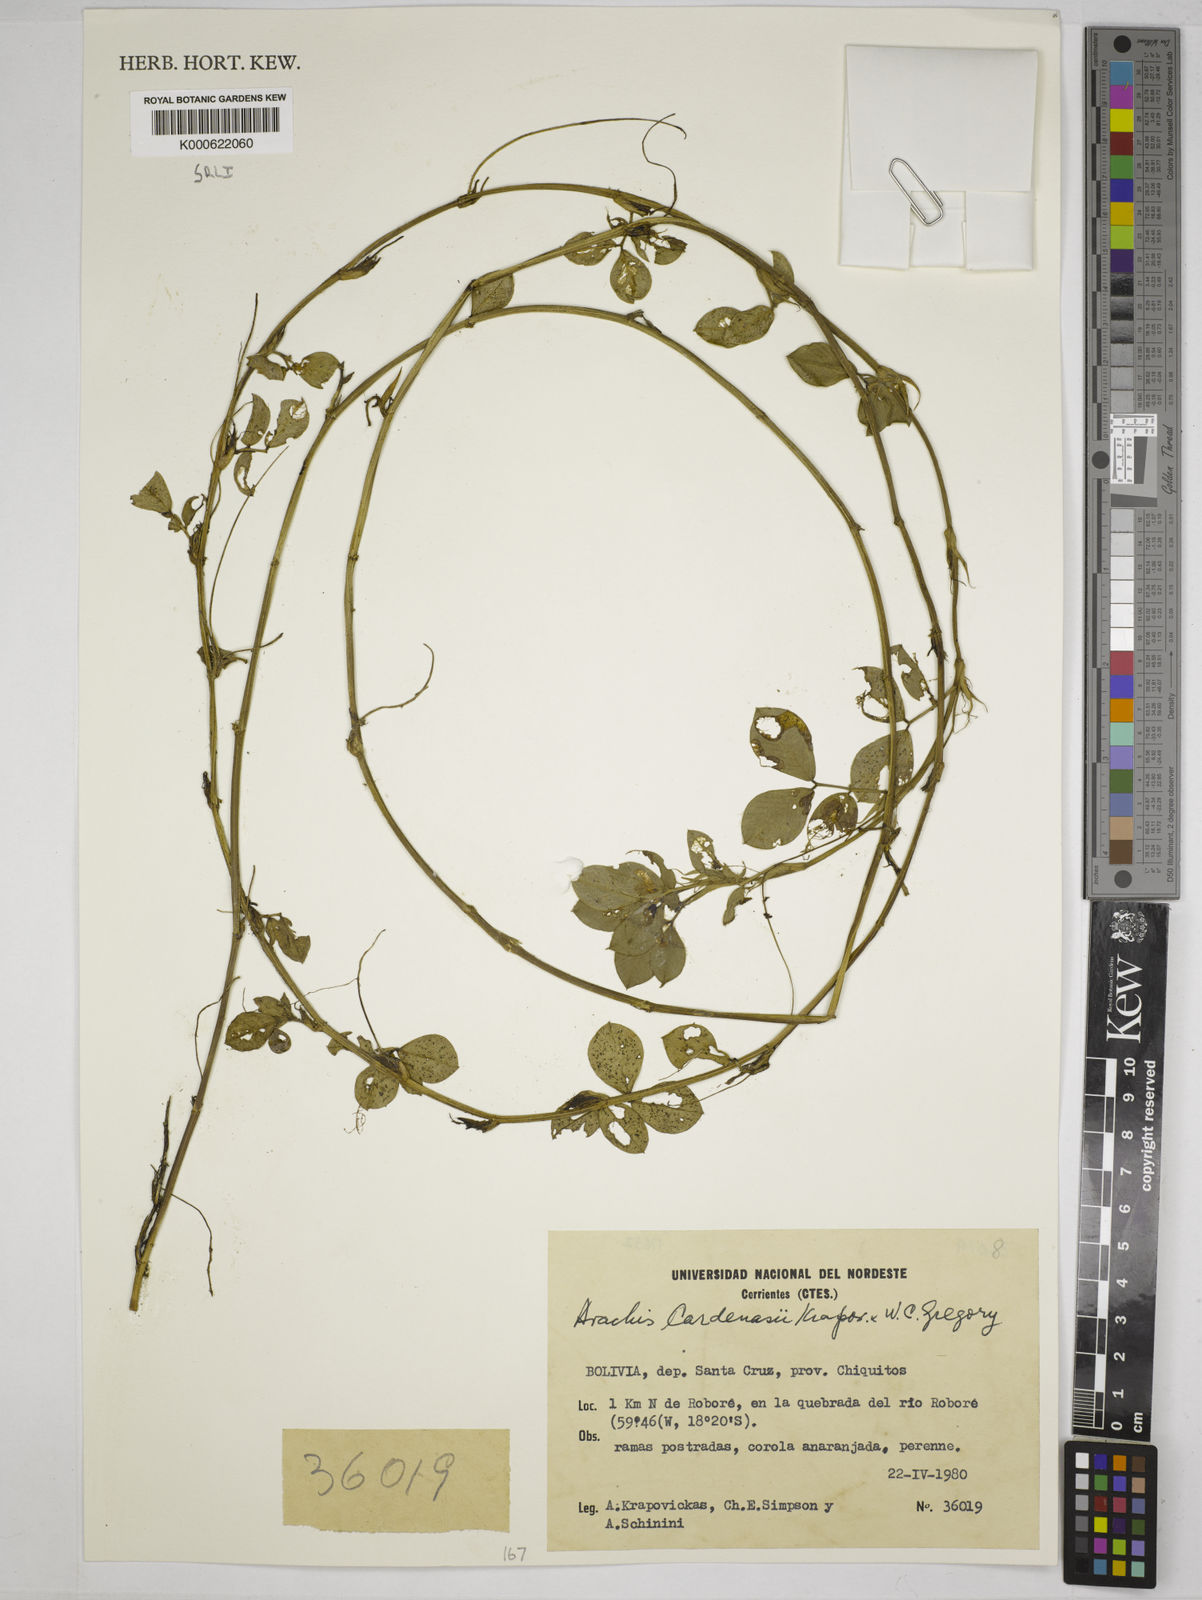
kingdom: Plantae
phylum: Tracheophyta
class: Magnoliopsida
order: Fabales
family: Fabaceae
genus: Arachis
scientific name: Arachis cardenasii
